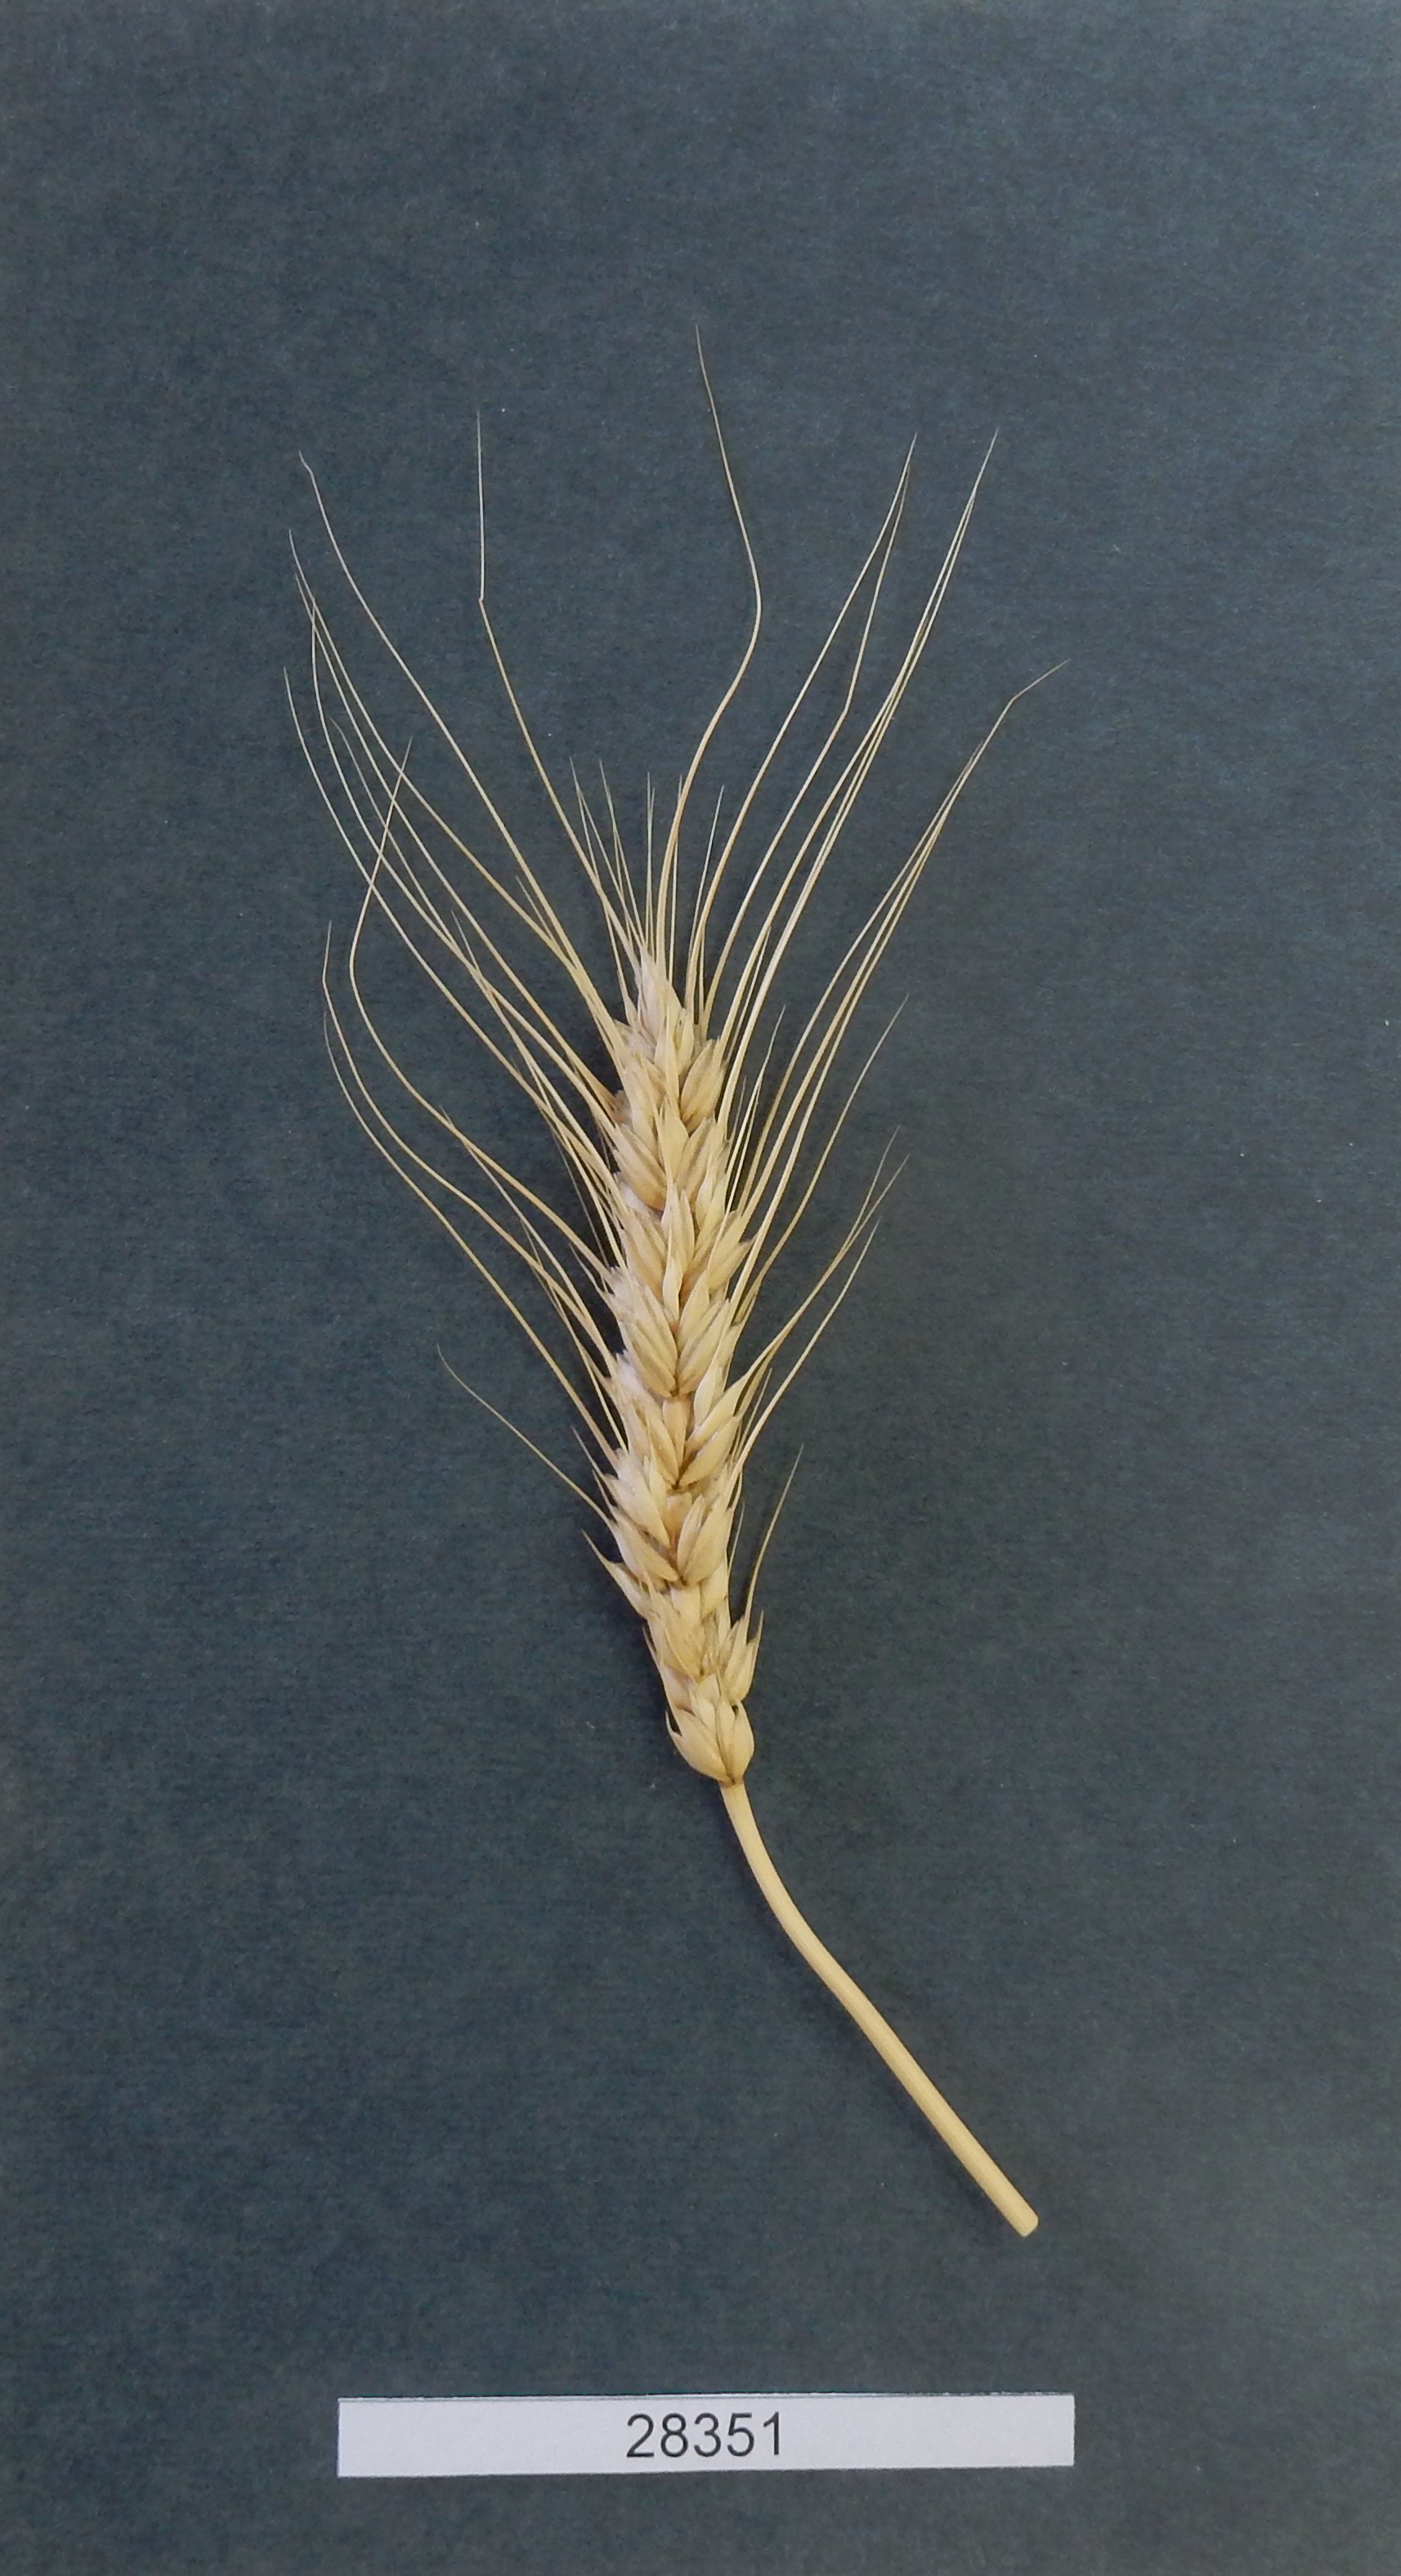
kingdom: Plantae
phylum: Tracheophyta
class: Liliopsida
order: Poales
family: Poaceae
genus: Triticum
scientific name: Triticum aestivum
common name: Common wheat
